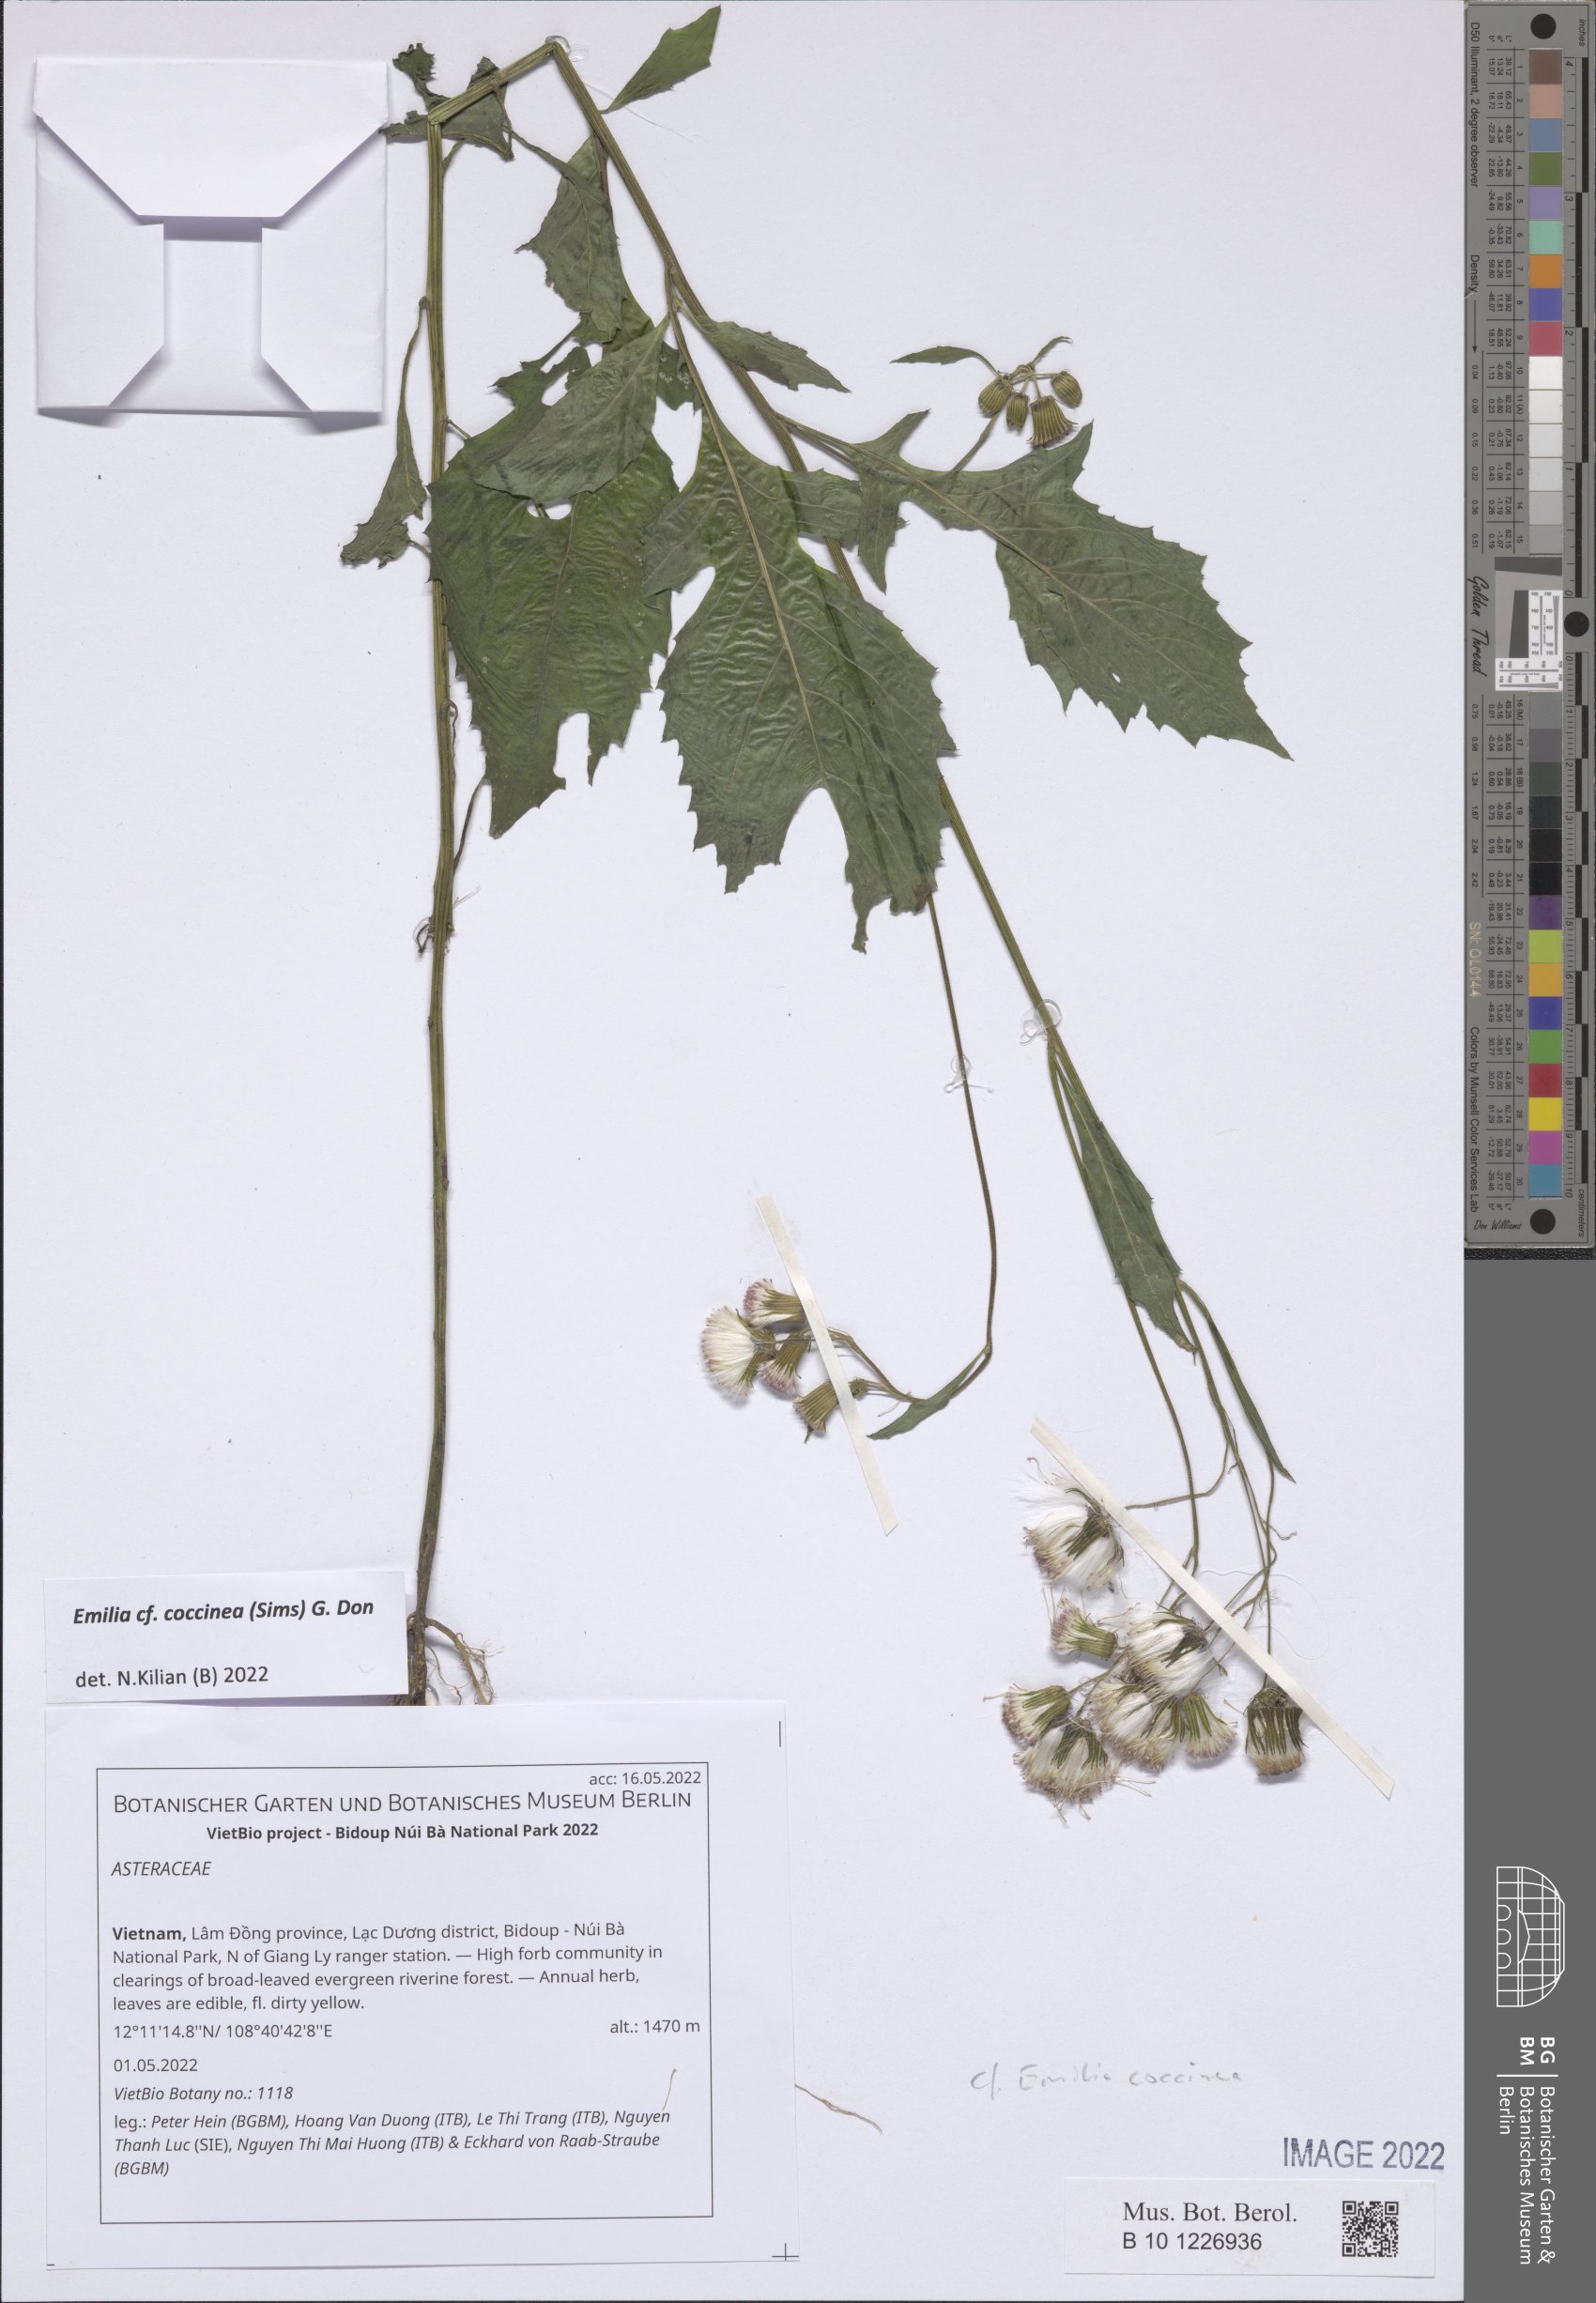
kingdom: Plantae
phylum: Tracheophyta
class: Magnoliopsida
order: Asterales
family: Asteraceae
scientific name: Asteraceae
